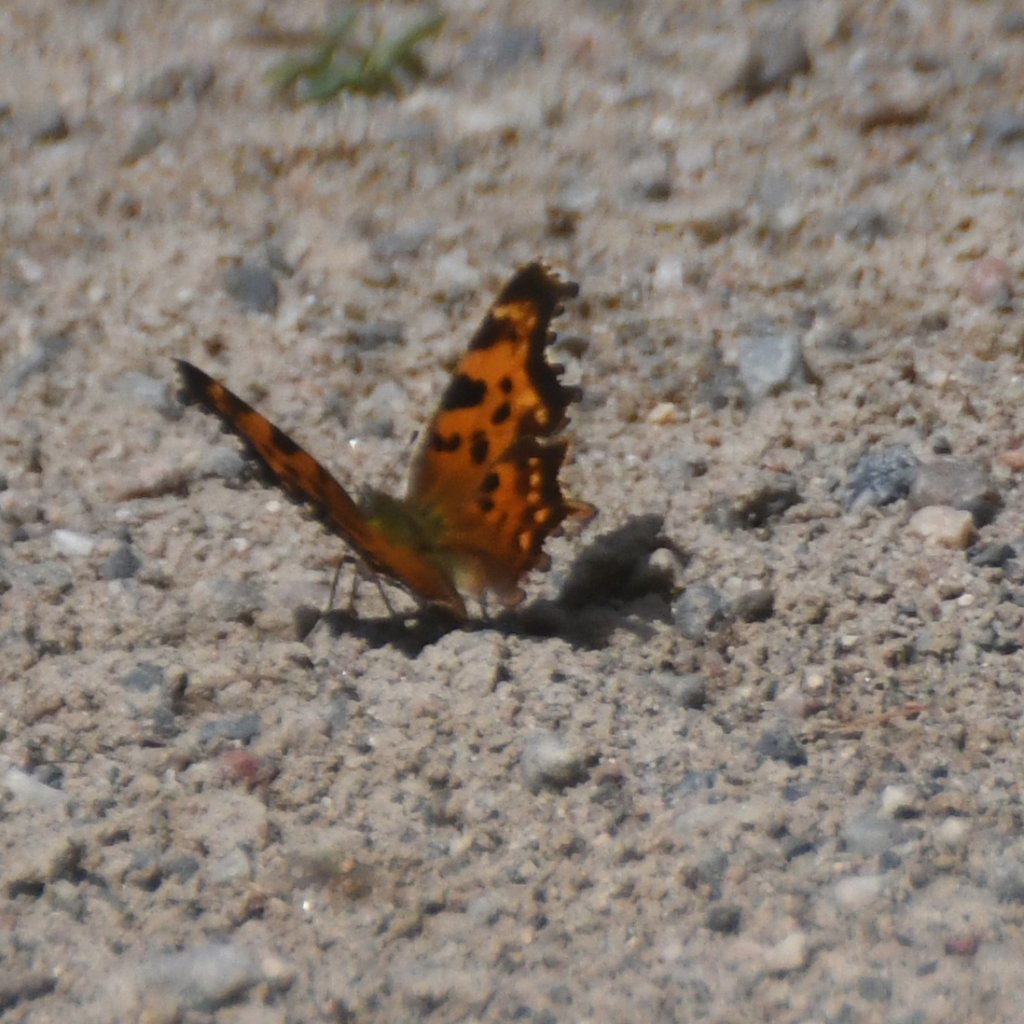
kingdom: Animalia
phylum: Arthropoda
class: Insecta
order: Lepidoptera
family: Nymphalidae
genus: Polygonia
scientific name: Polygonia faunus
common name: Green Comma
